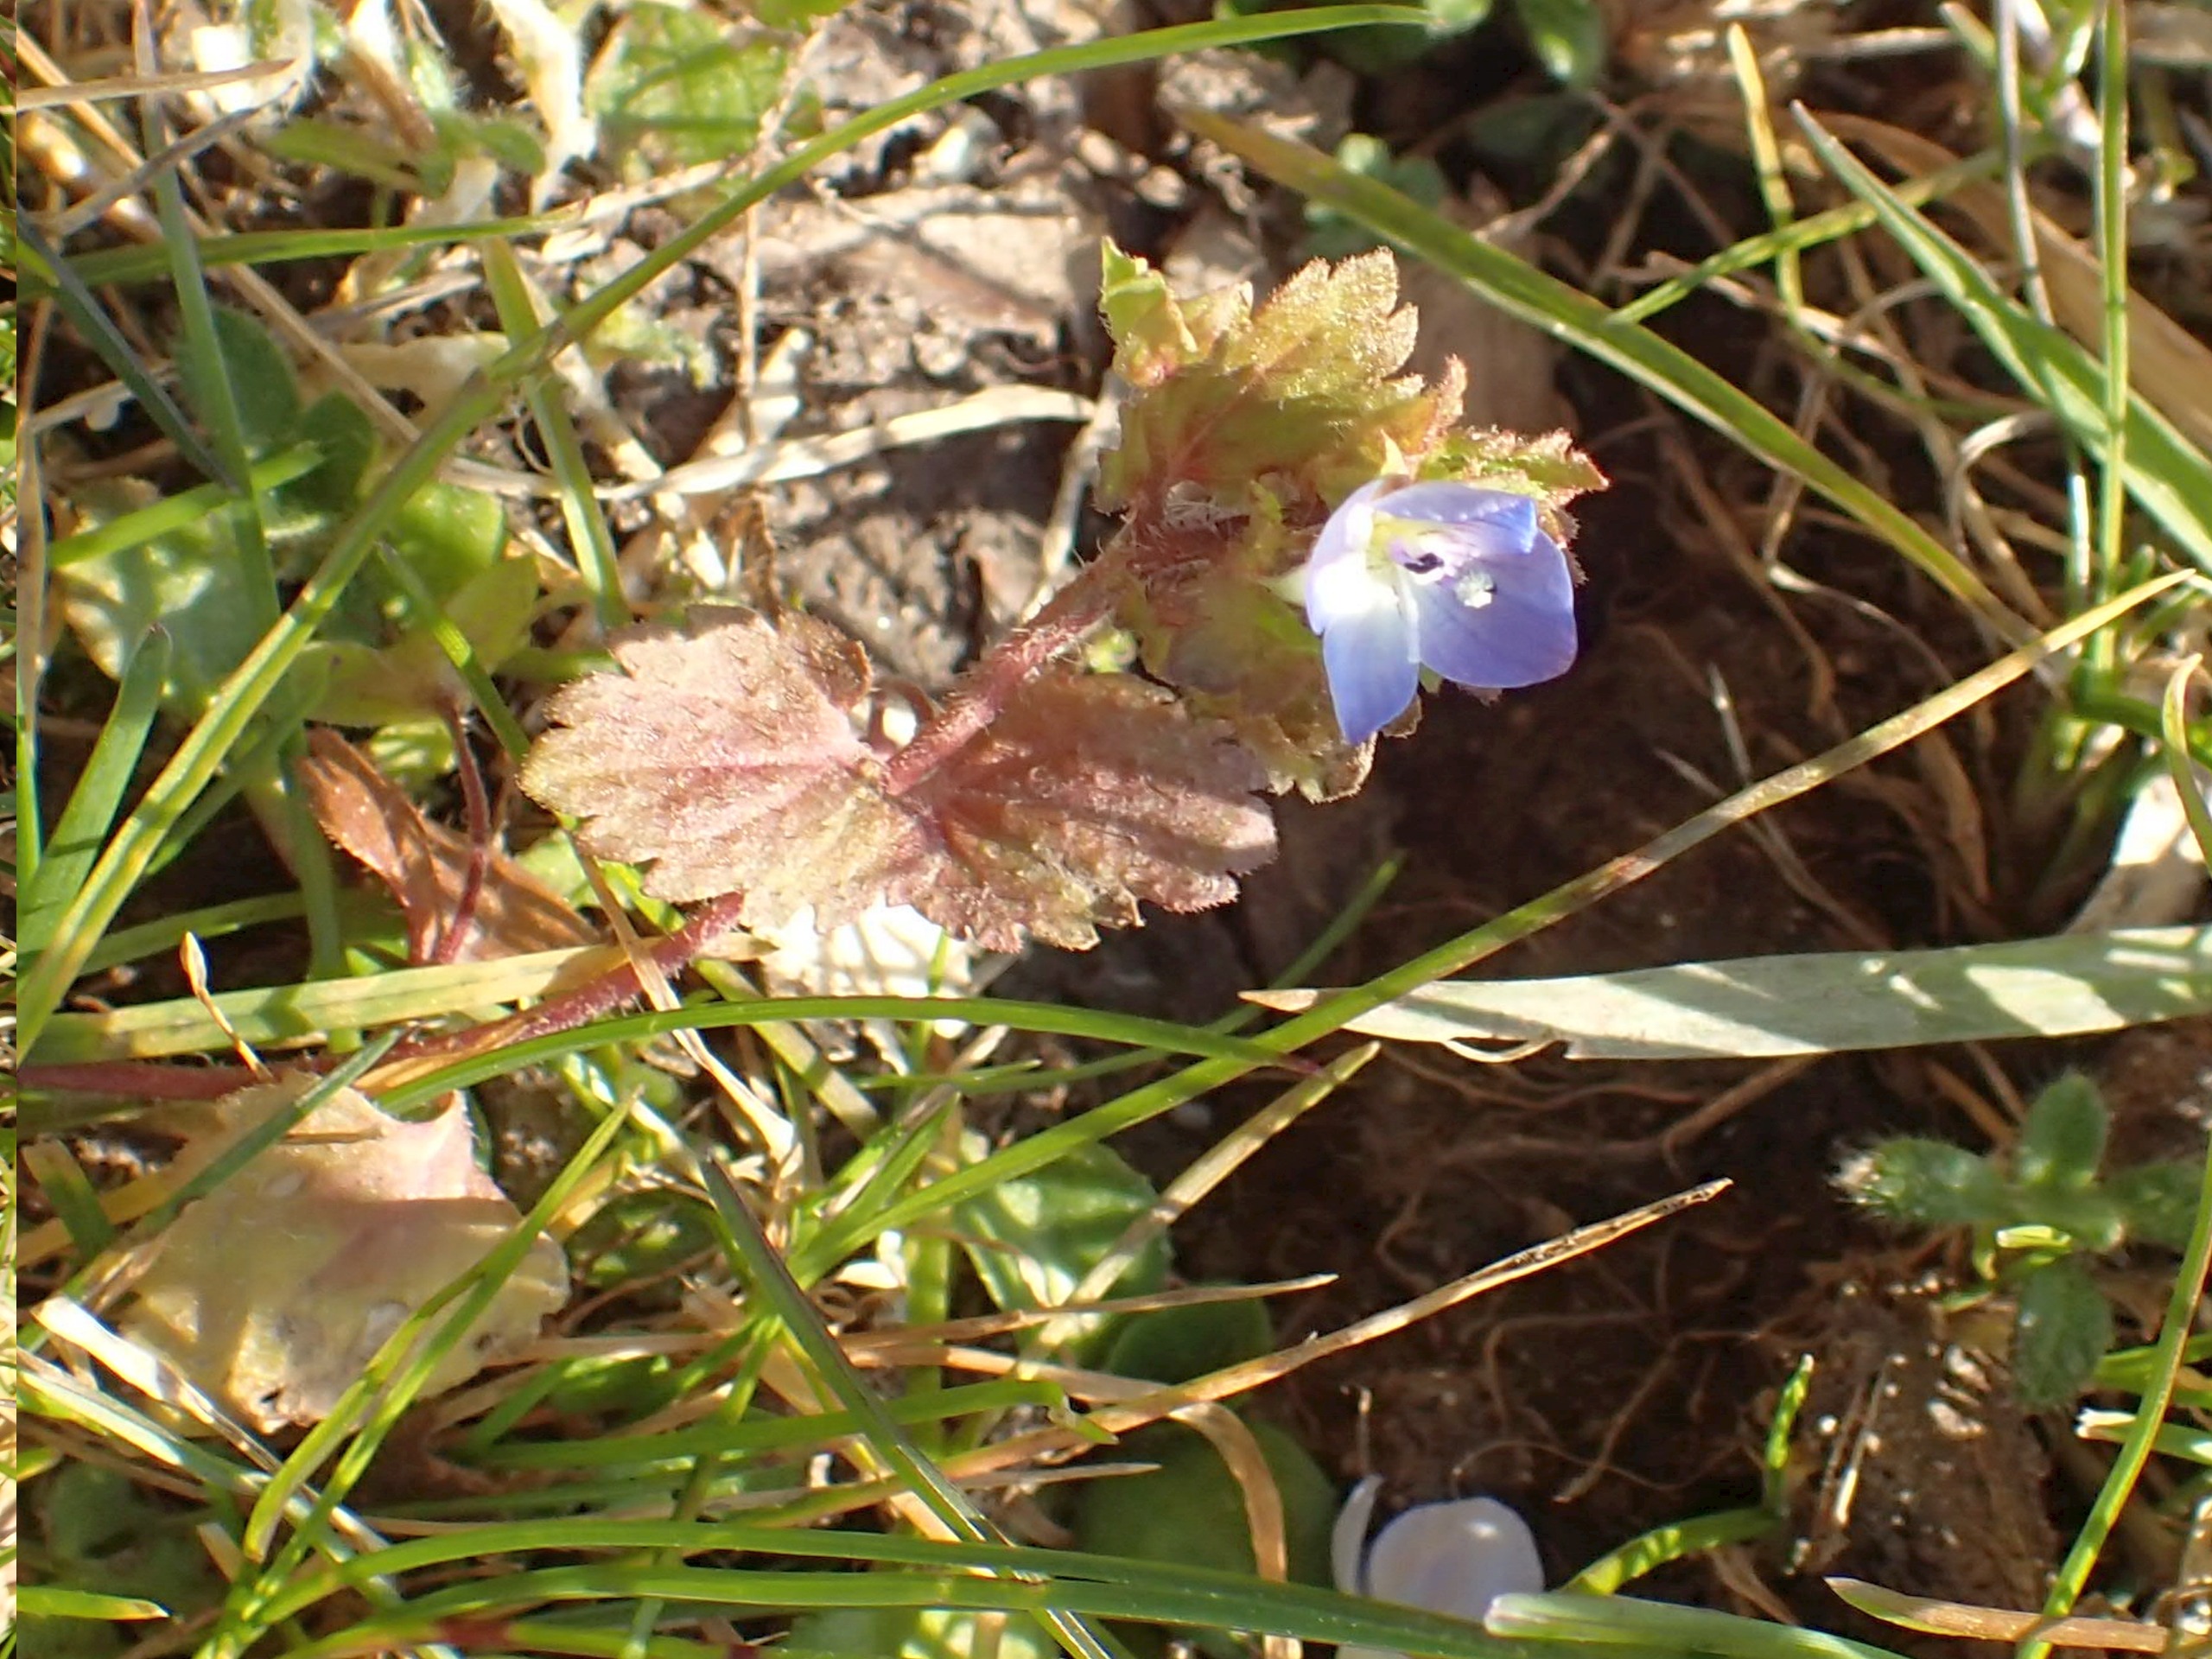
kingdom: Plantae
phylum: Tracheophyta
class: Magnoliopsida
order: Lamiales
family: Plantaginaceae
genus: Veronica
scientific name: Veronica persica
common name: Storkronet ærenpris
